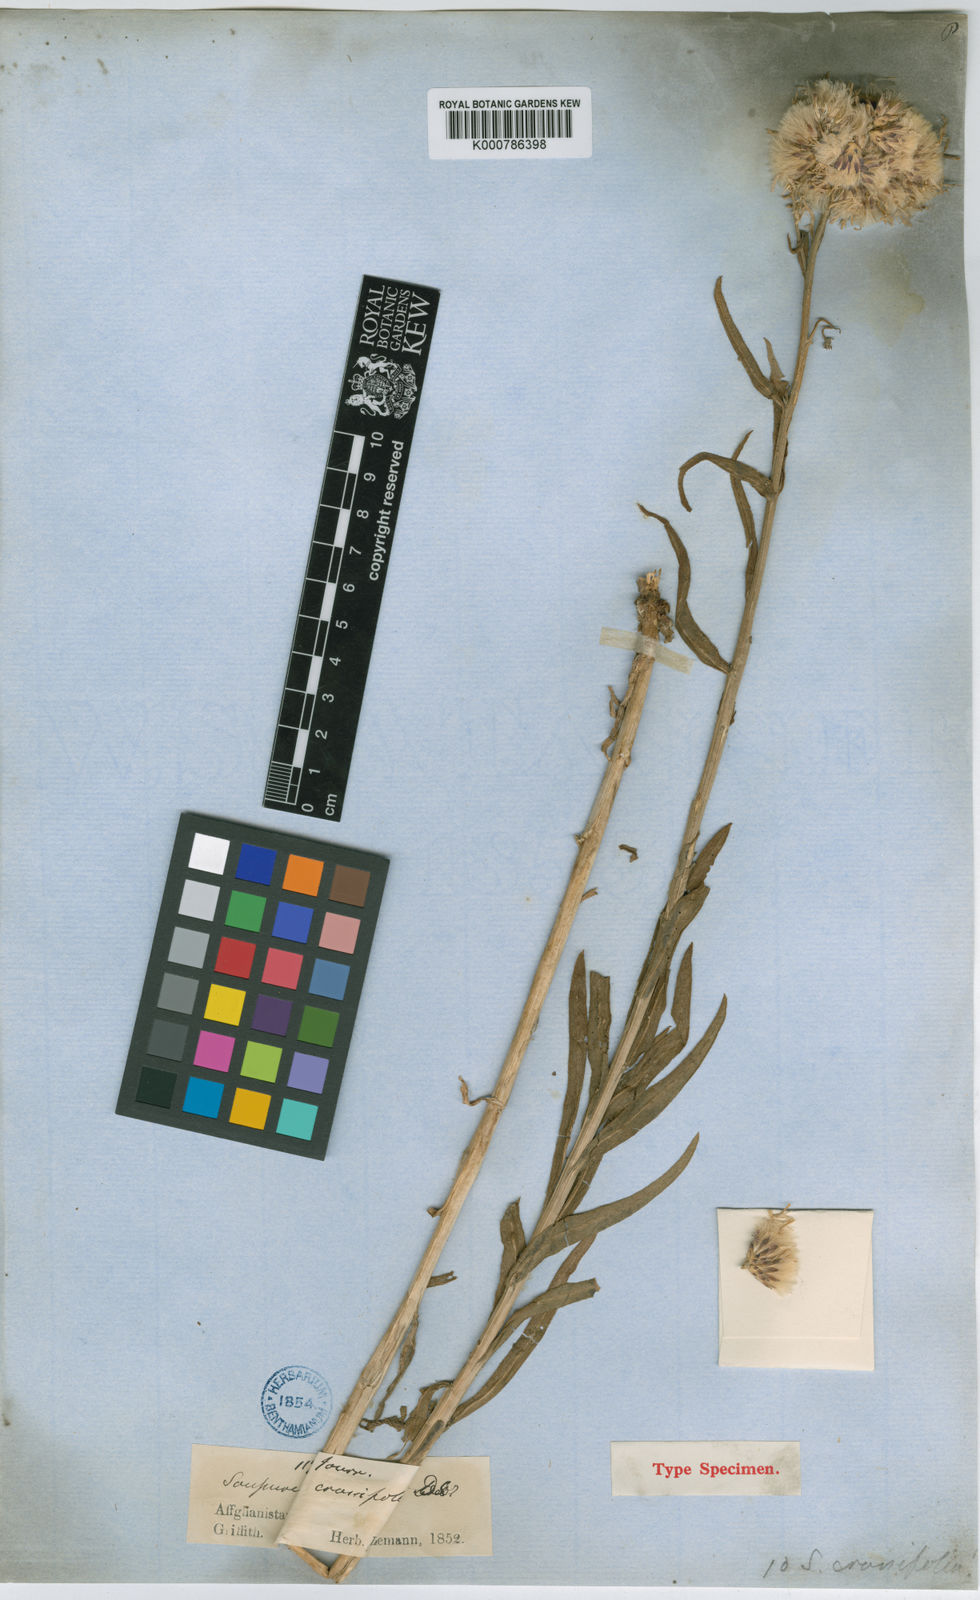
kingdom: Plantae
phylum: Tracheophyta
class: Magnoliopsida
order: Asterales
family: Asteraceae
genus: Saussurea
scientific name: Saussurea griffithii
